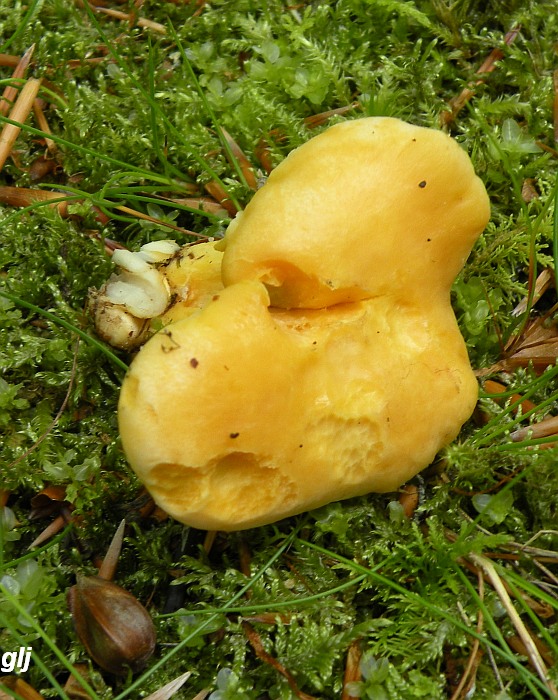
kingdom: Fungi
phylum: Basidiomycota
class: Agaricomycetes
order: Cantharellales
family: Hydnaceae
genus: Cantharellus
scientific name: Cantharellus pallens
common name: bleg kantarel
